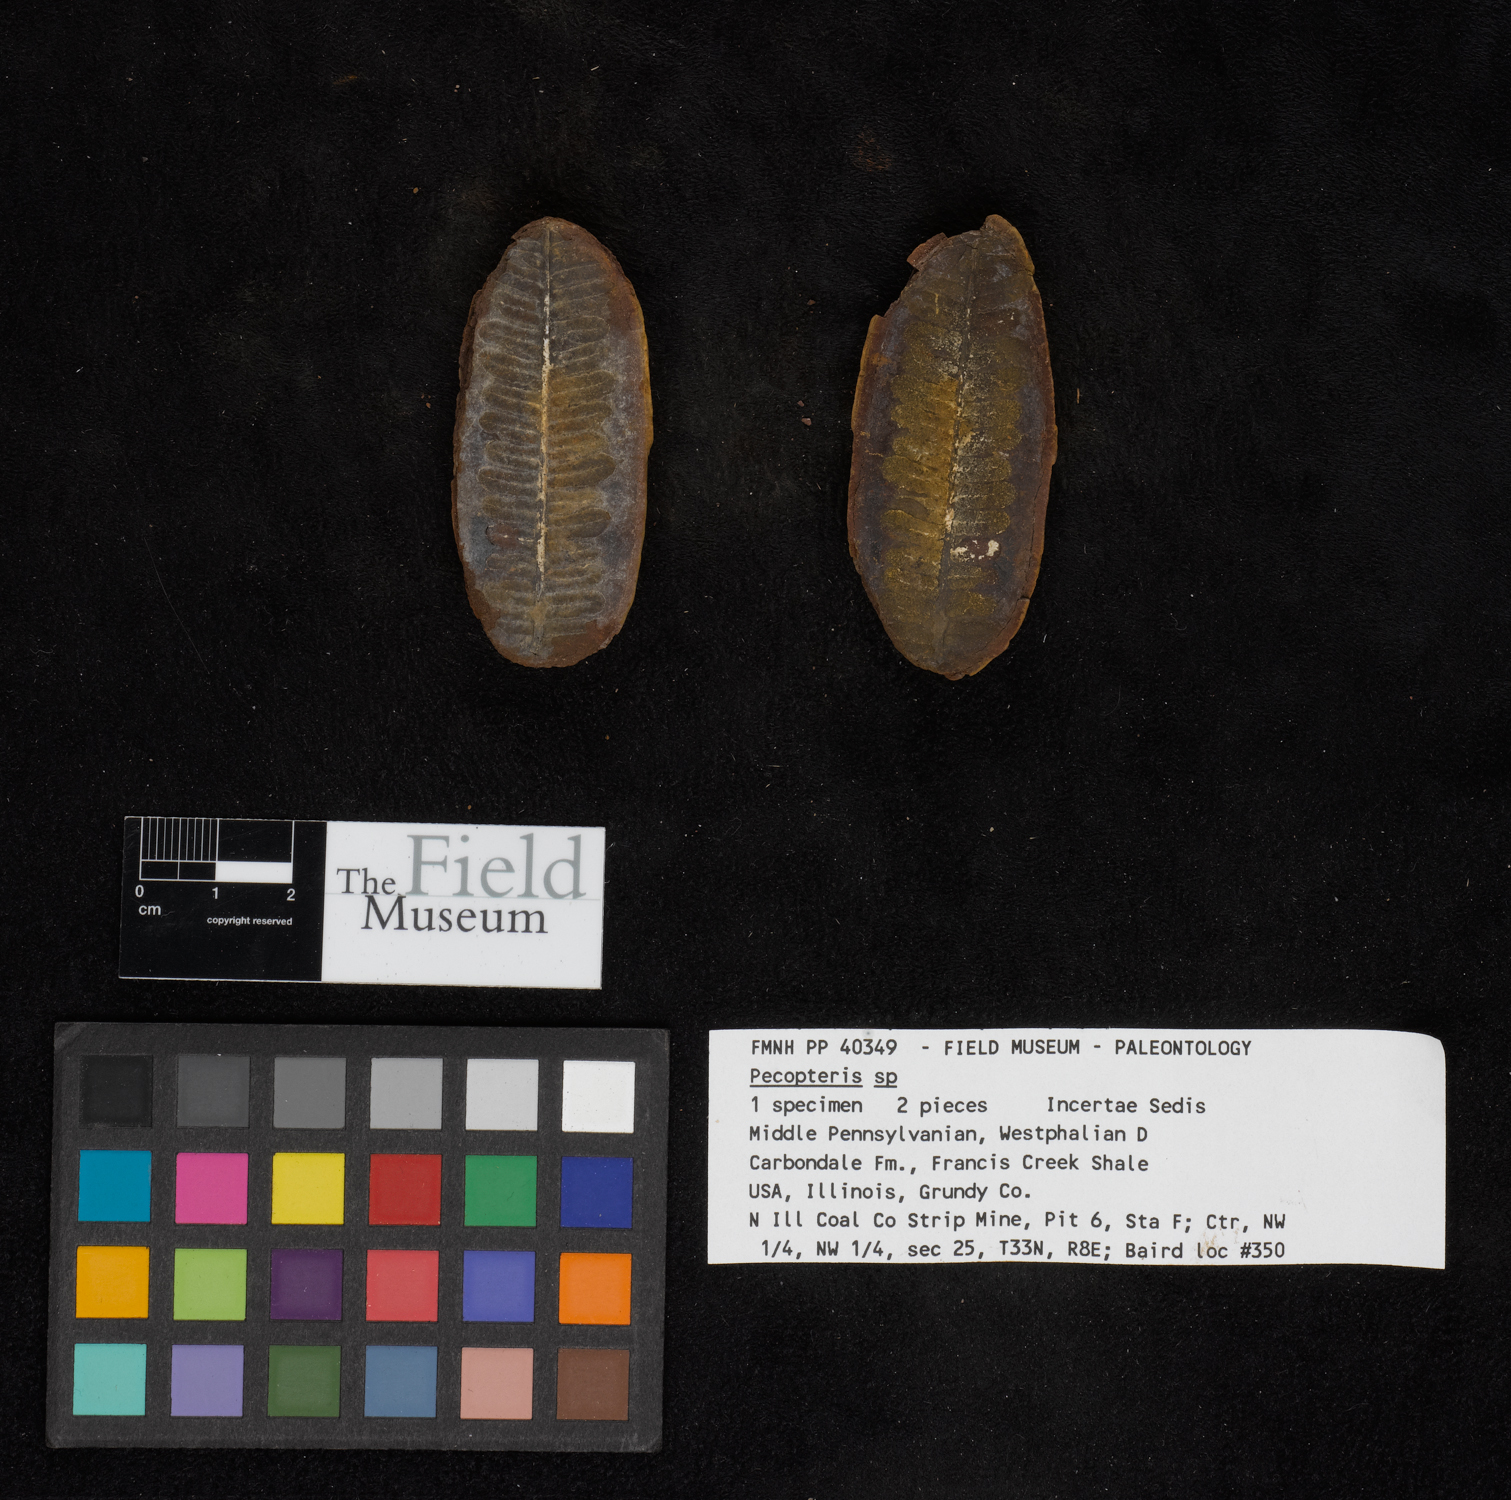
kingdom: Plantae
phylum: Tracheophyta
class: Polypodiopsida
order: Marattiales
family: Asterothecaceae
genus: Pecopteris
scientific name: Pecopteris
